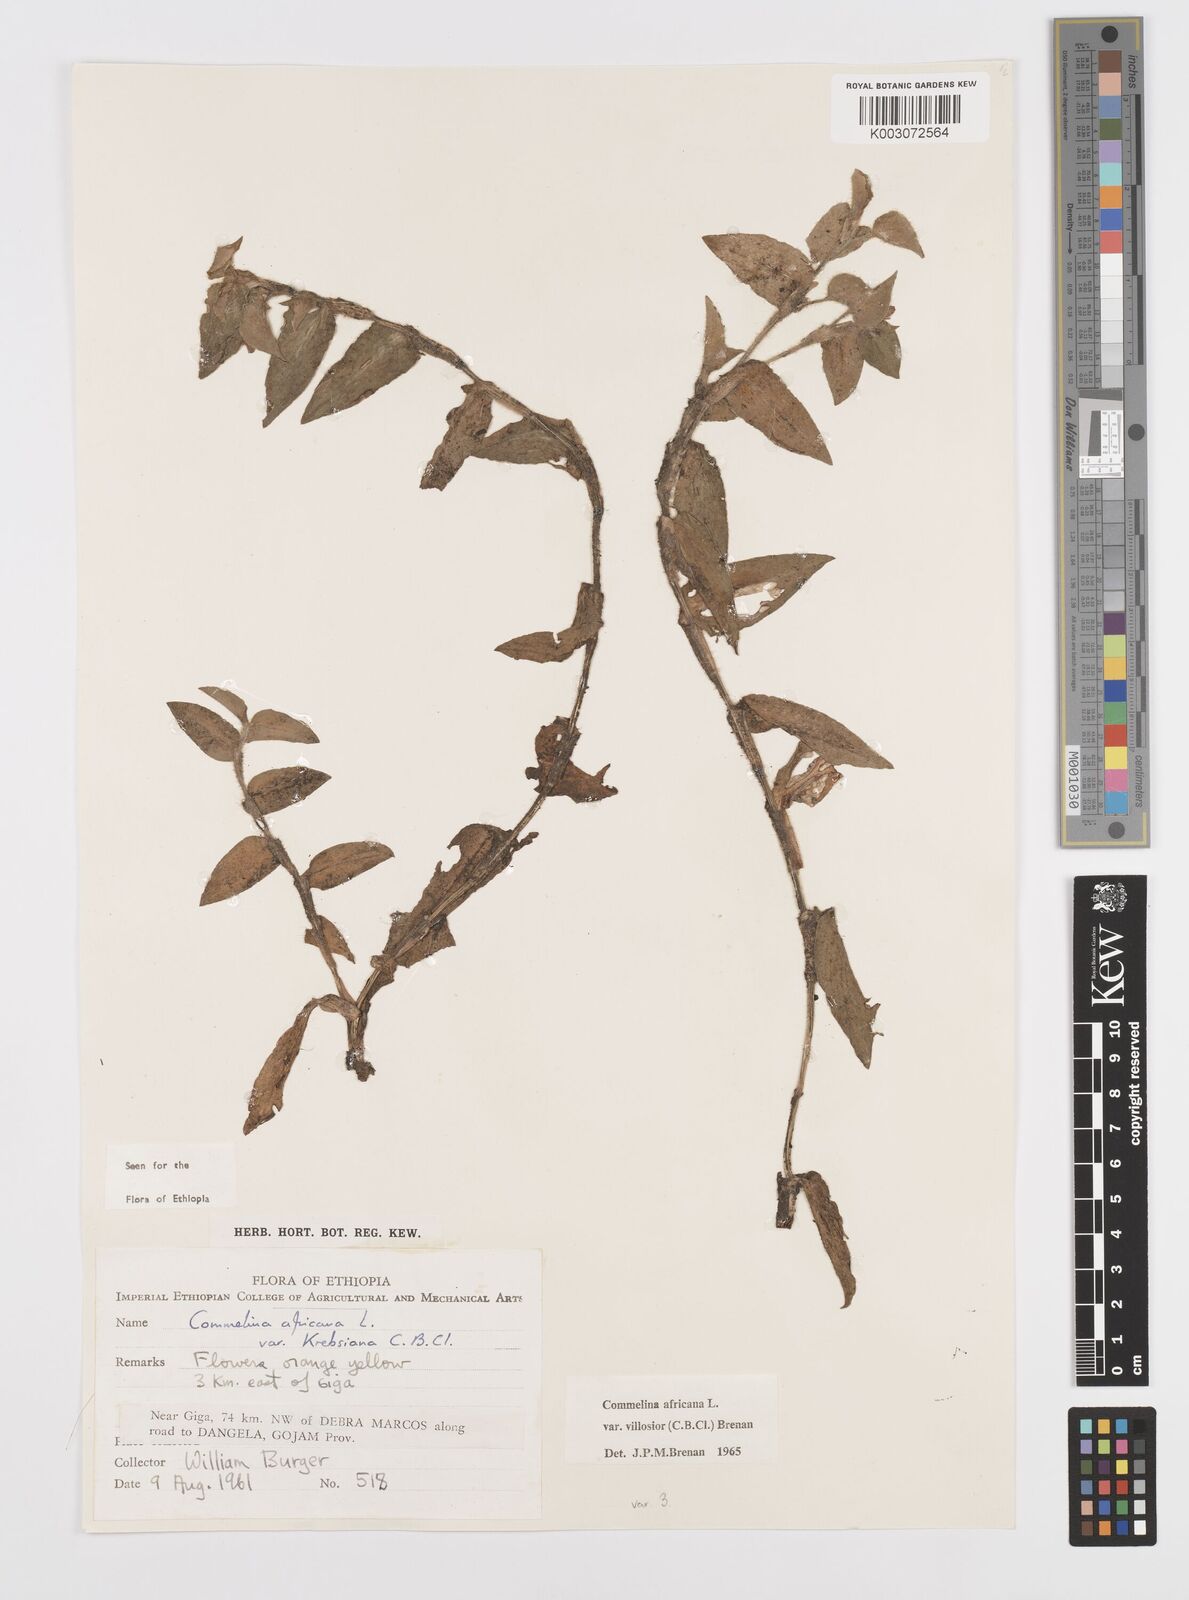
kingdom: Plantae
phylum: Tracheophyta
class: Liliopsida
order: Commelinales
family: Commelinaceae
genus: Commelina
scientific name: Commelina africana
